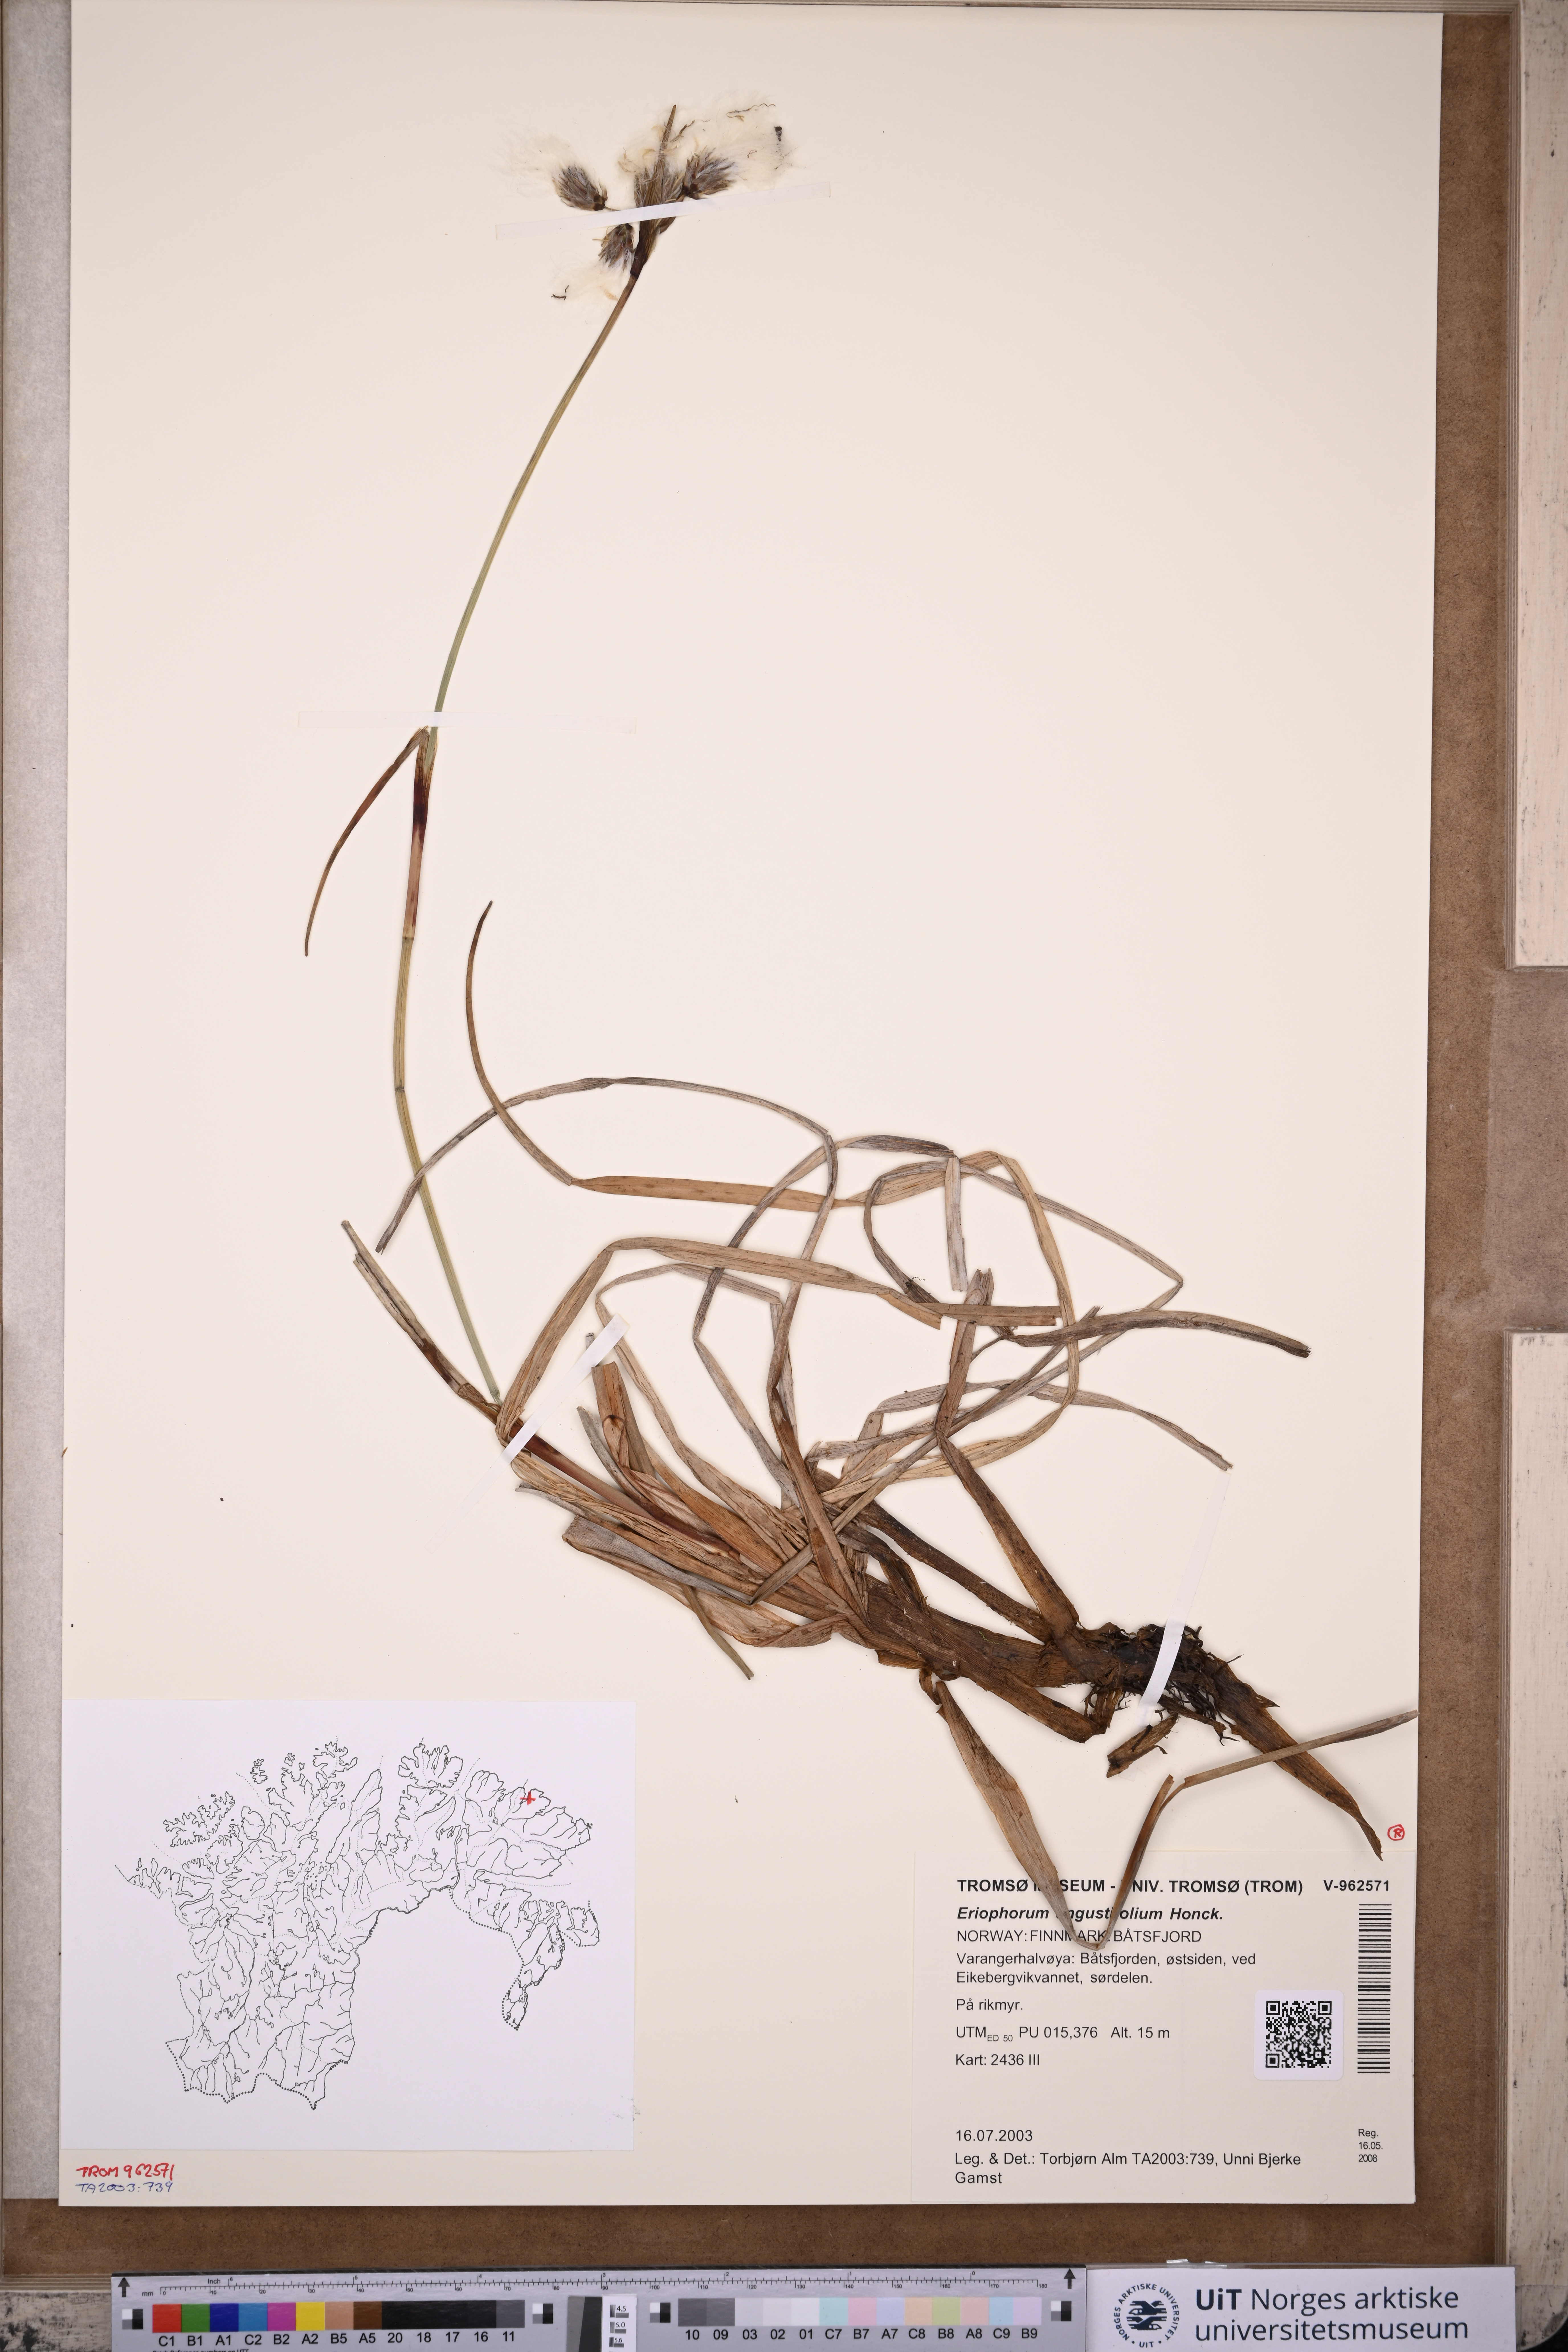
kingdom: Plantae
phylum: Tracheophyta
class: Liliopsida
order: Poales
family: Cyperaceae
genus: Eriophorum
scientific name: Eriophorum angustifolium
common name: Common cottongrass
